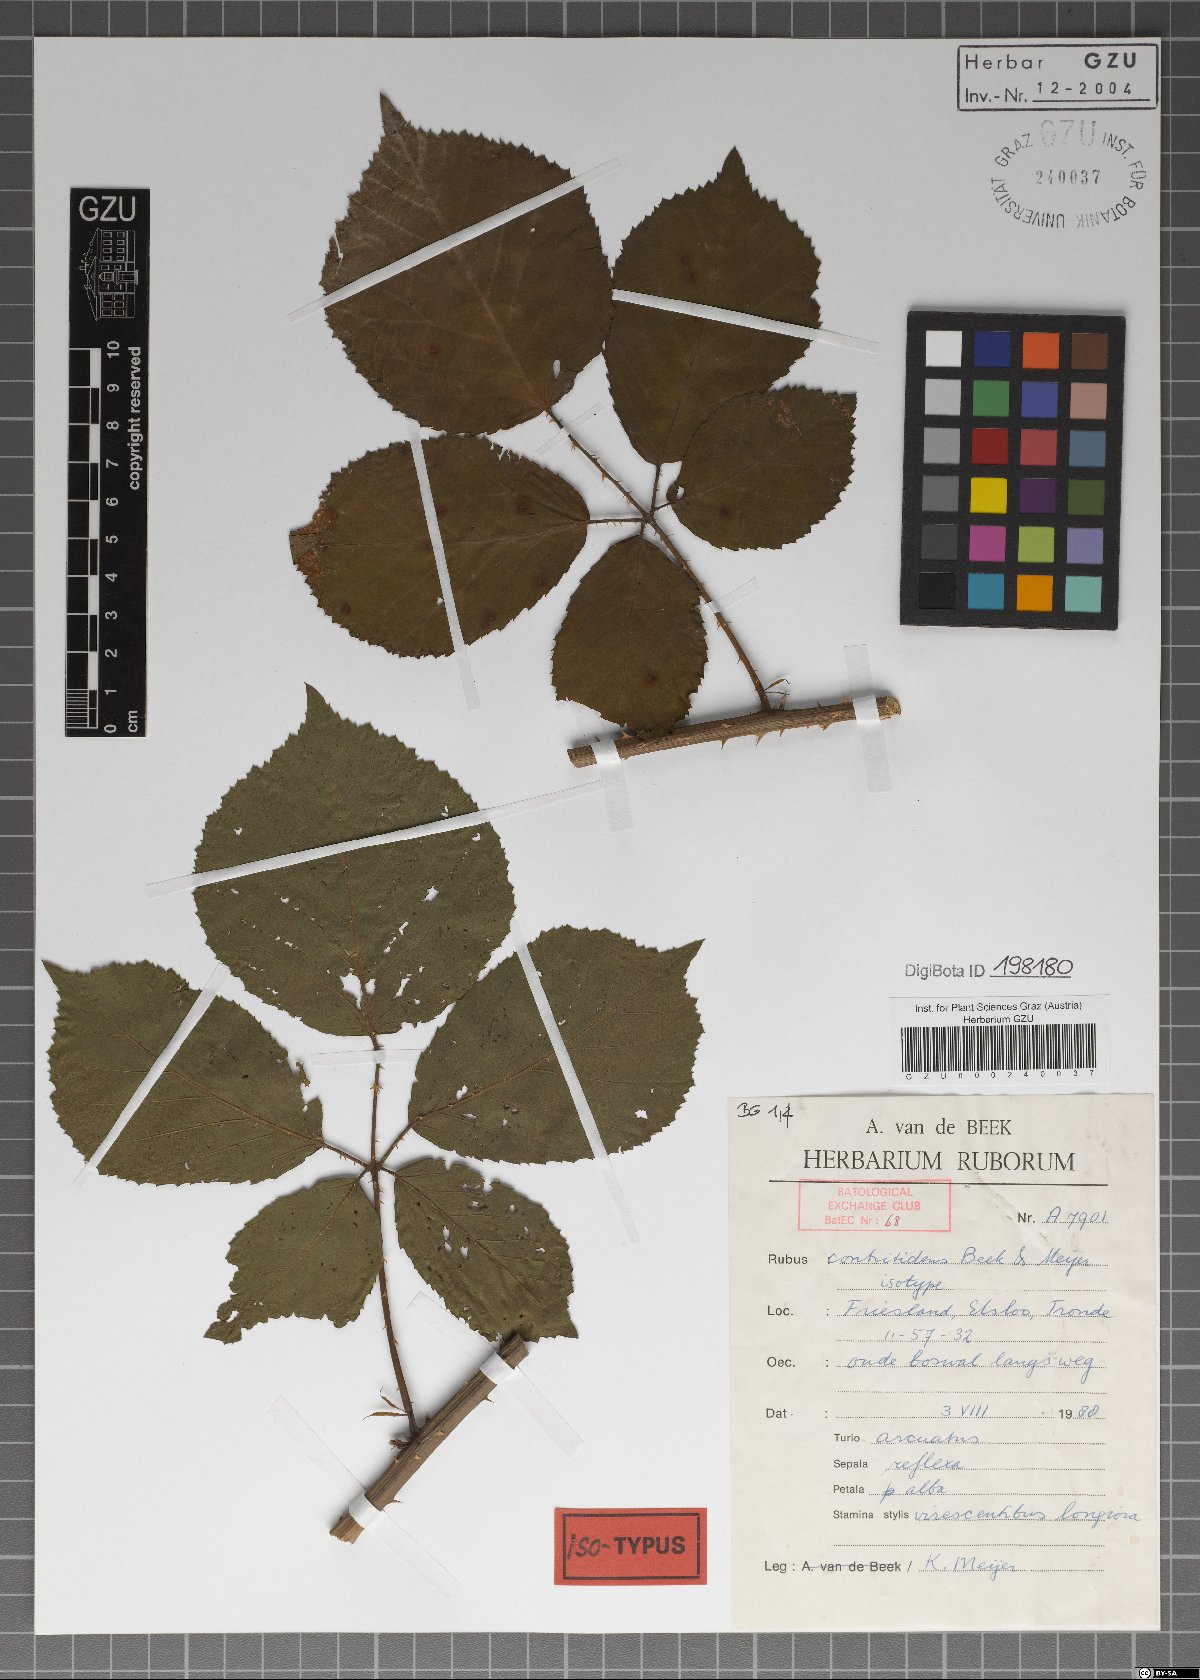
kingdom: Plantae
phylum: Tracheophyta
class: Magnoliopsida
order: Rosales
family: Rosaceae
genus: Rubus
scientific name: Rubus contritidens
